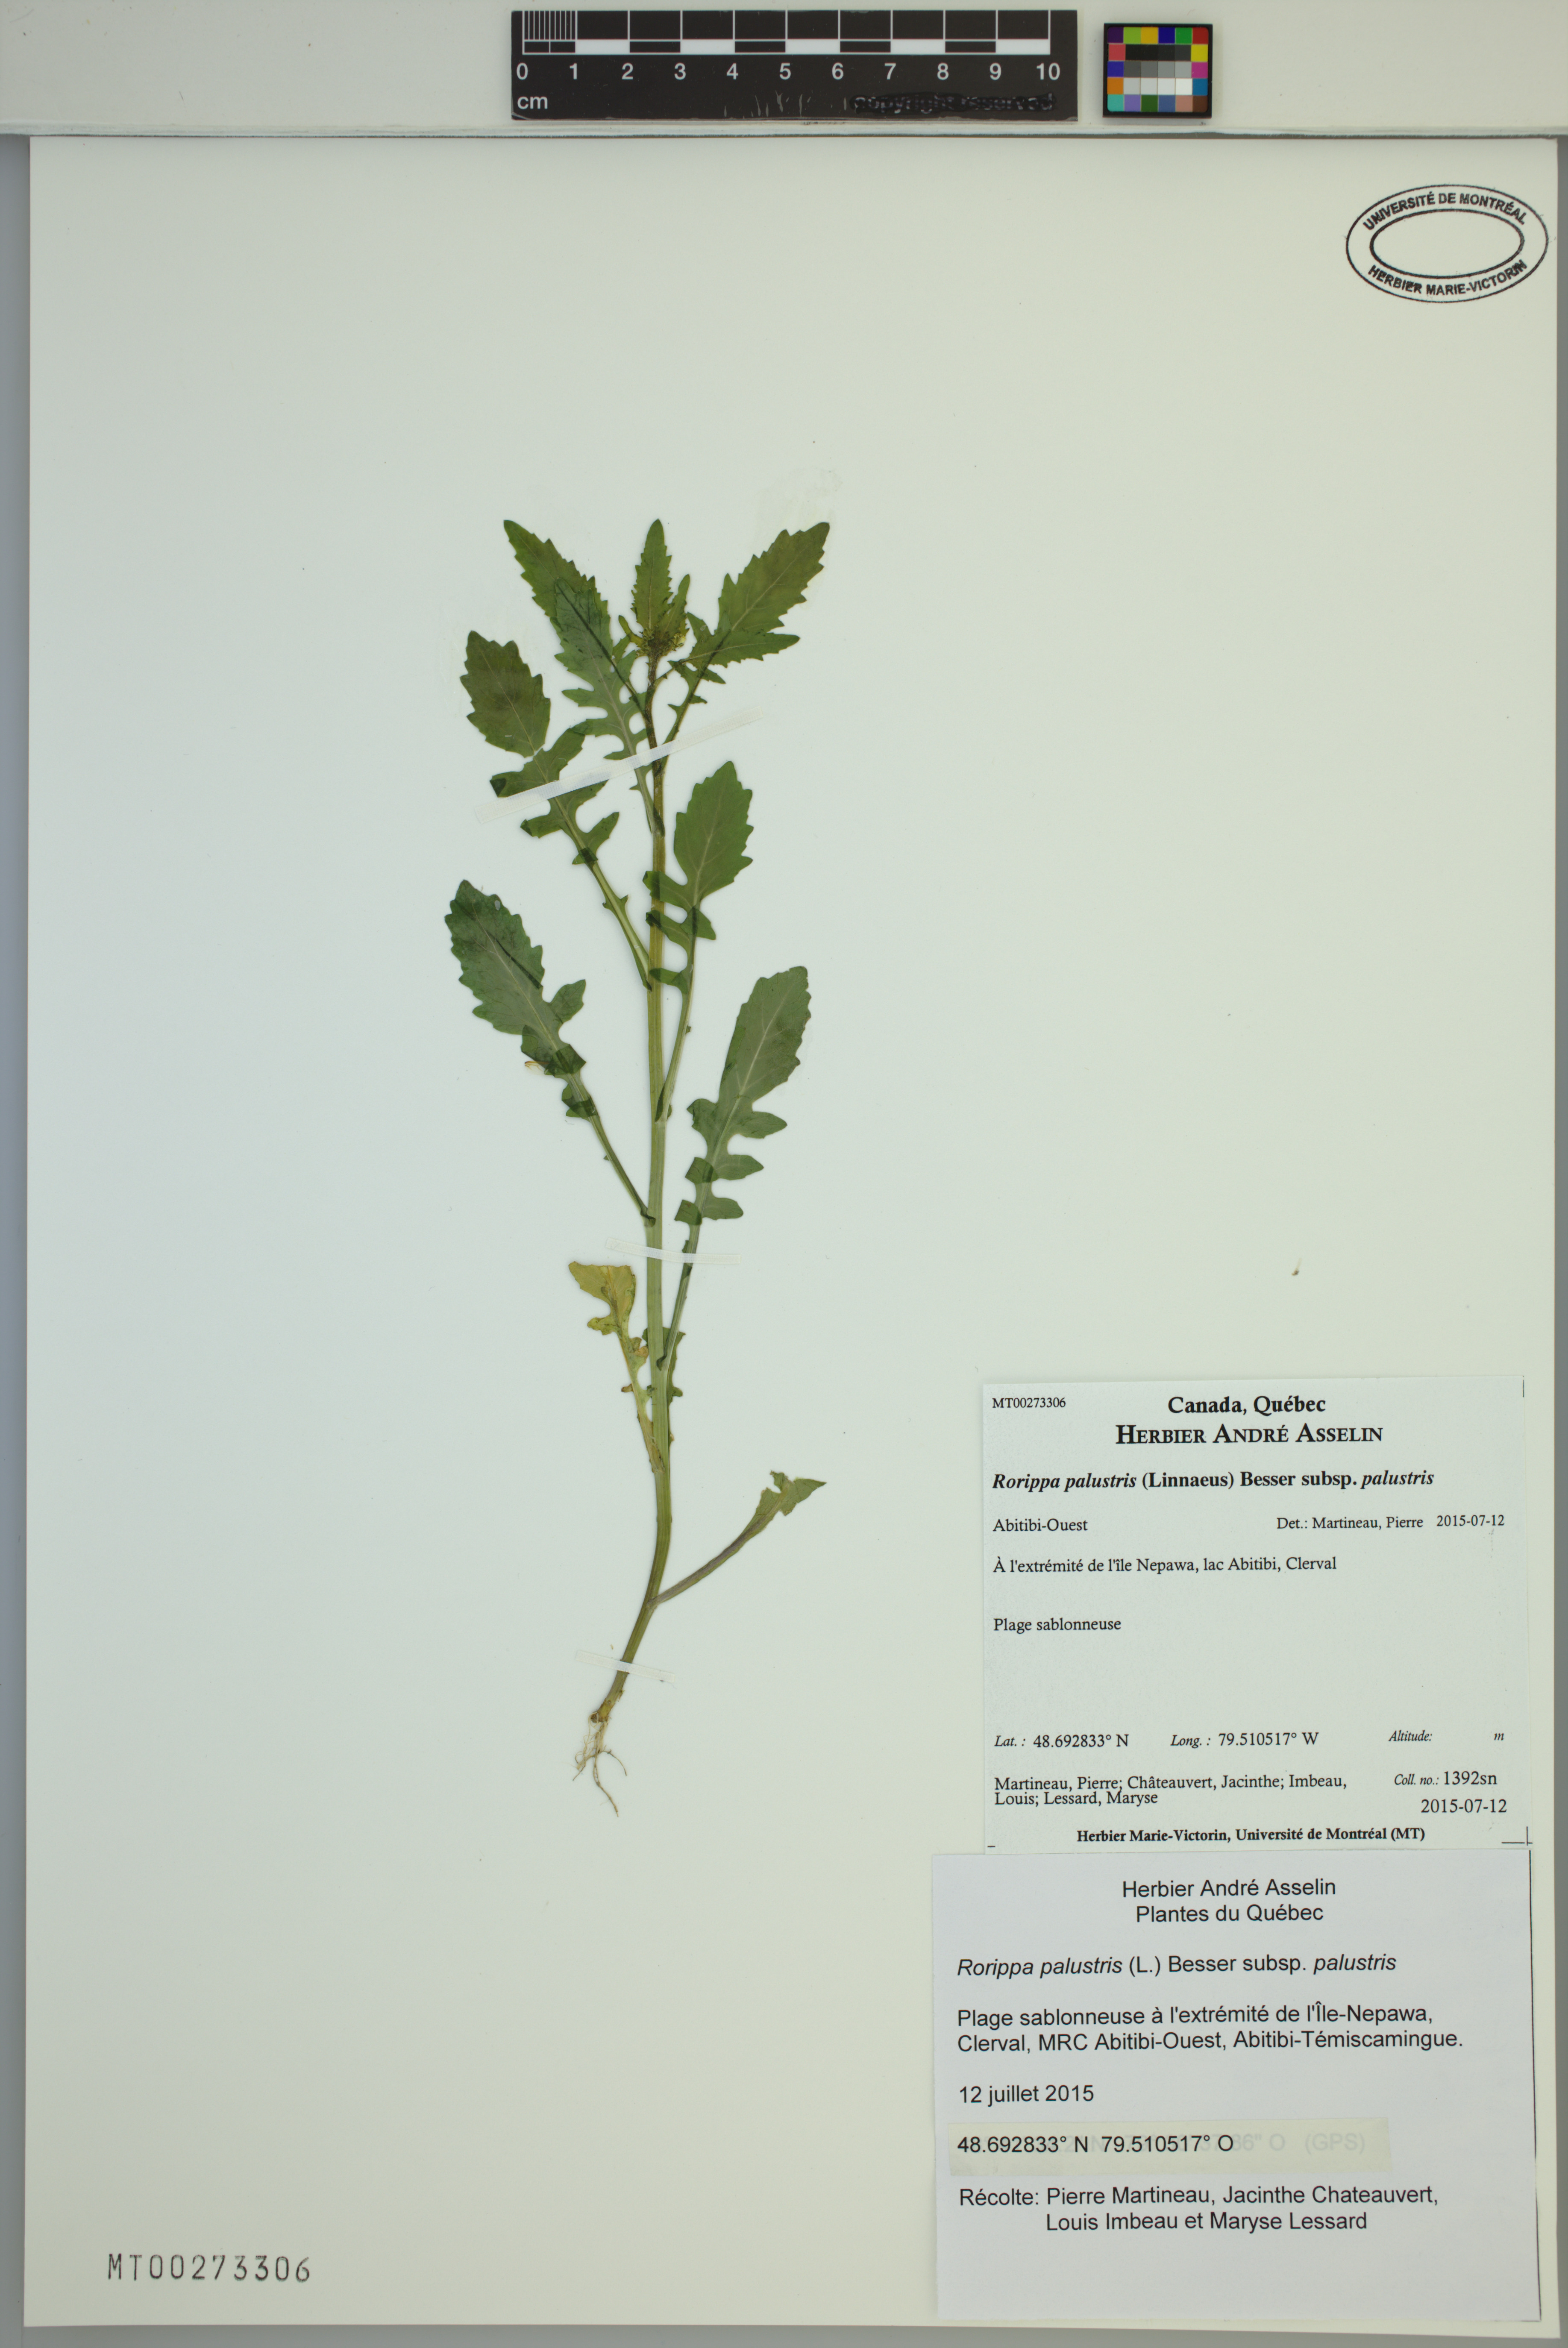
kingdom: Plantae
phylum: Tracheophyta
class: Magnoliopsida
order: Brassicales
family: Brassicaceae
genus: Rorippa
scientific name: Rorippa palustris
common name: Marsh yellow-cress
